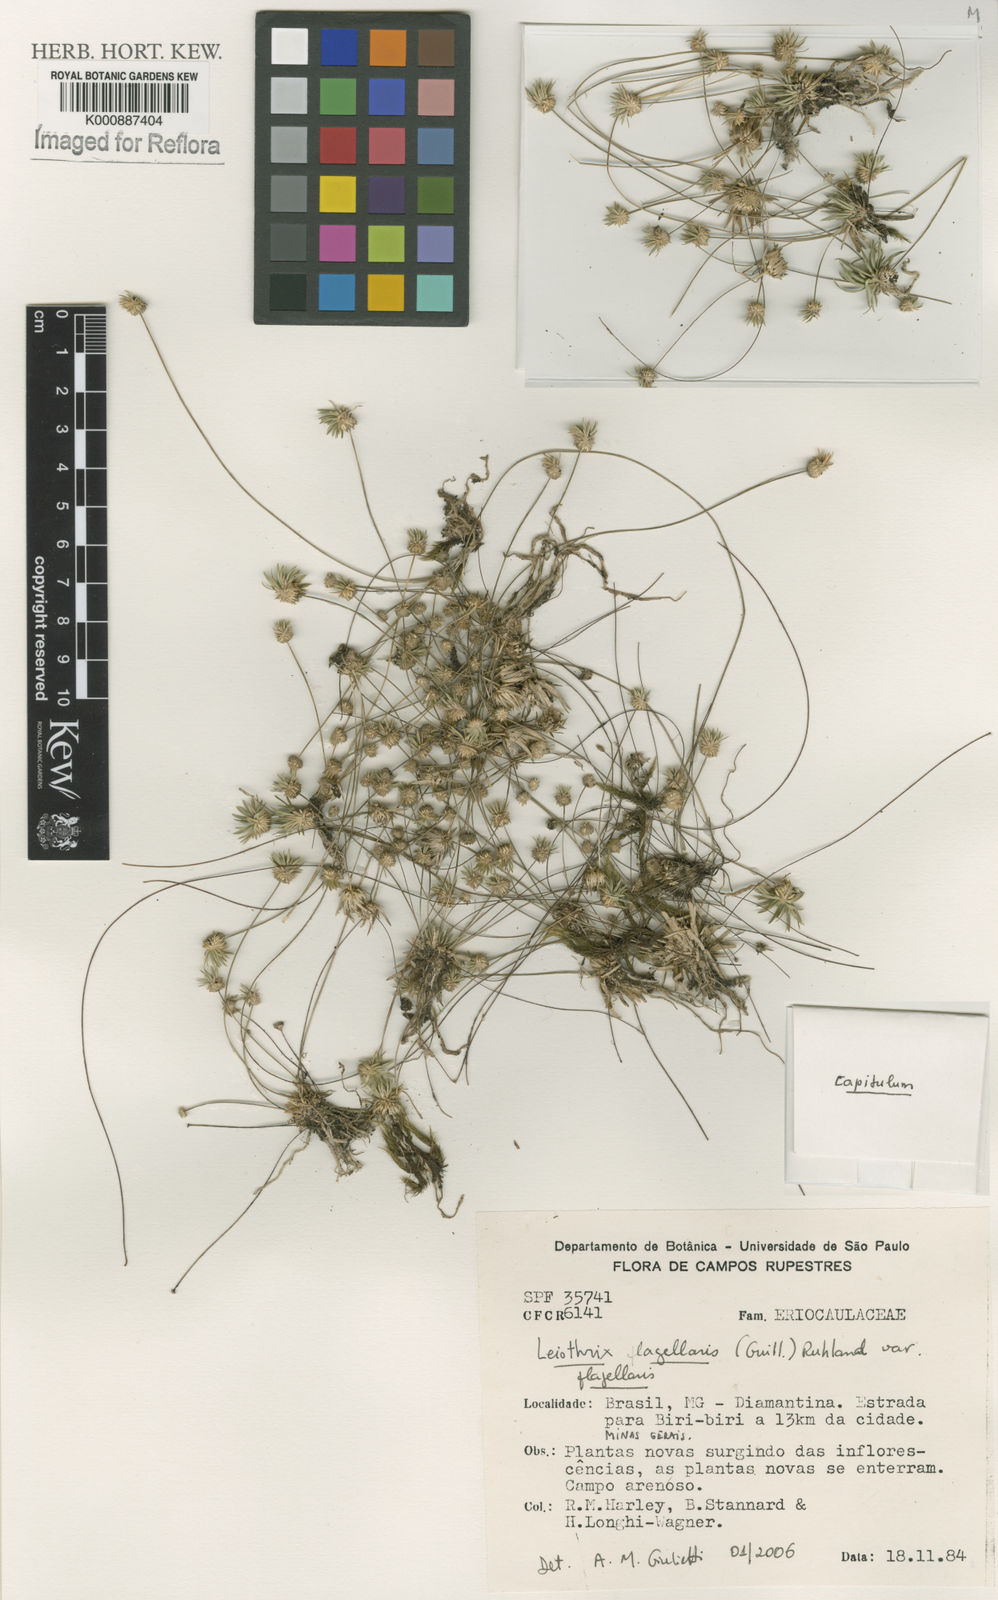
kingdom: Plantae
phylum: Tracheophyta
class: Liliopsida
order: Poales
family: Eriocaulaceae
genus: Leiothrix
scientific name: Leiothrix flagellaris
